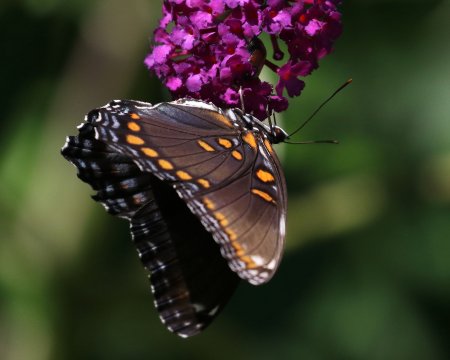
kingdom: Animalia
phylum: Arthropoda
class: Insecta
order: Lepidoptera
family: Nymphalidae
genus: Limenitis
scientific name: Limenitis arthemis
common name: Red-spotted Admiral
